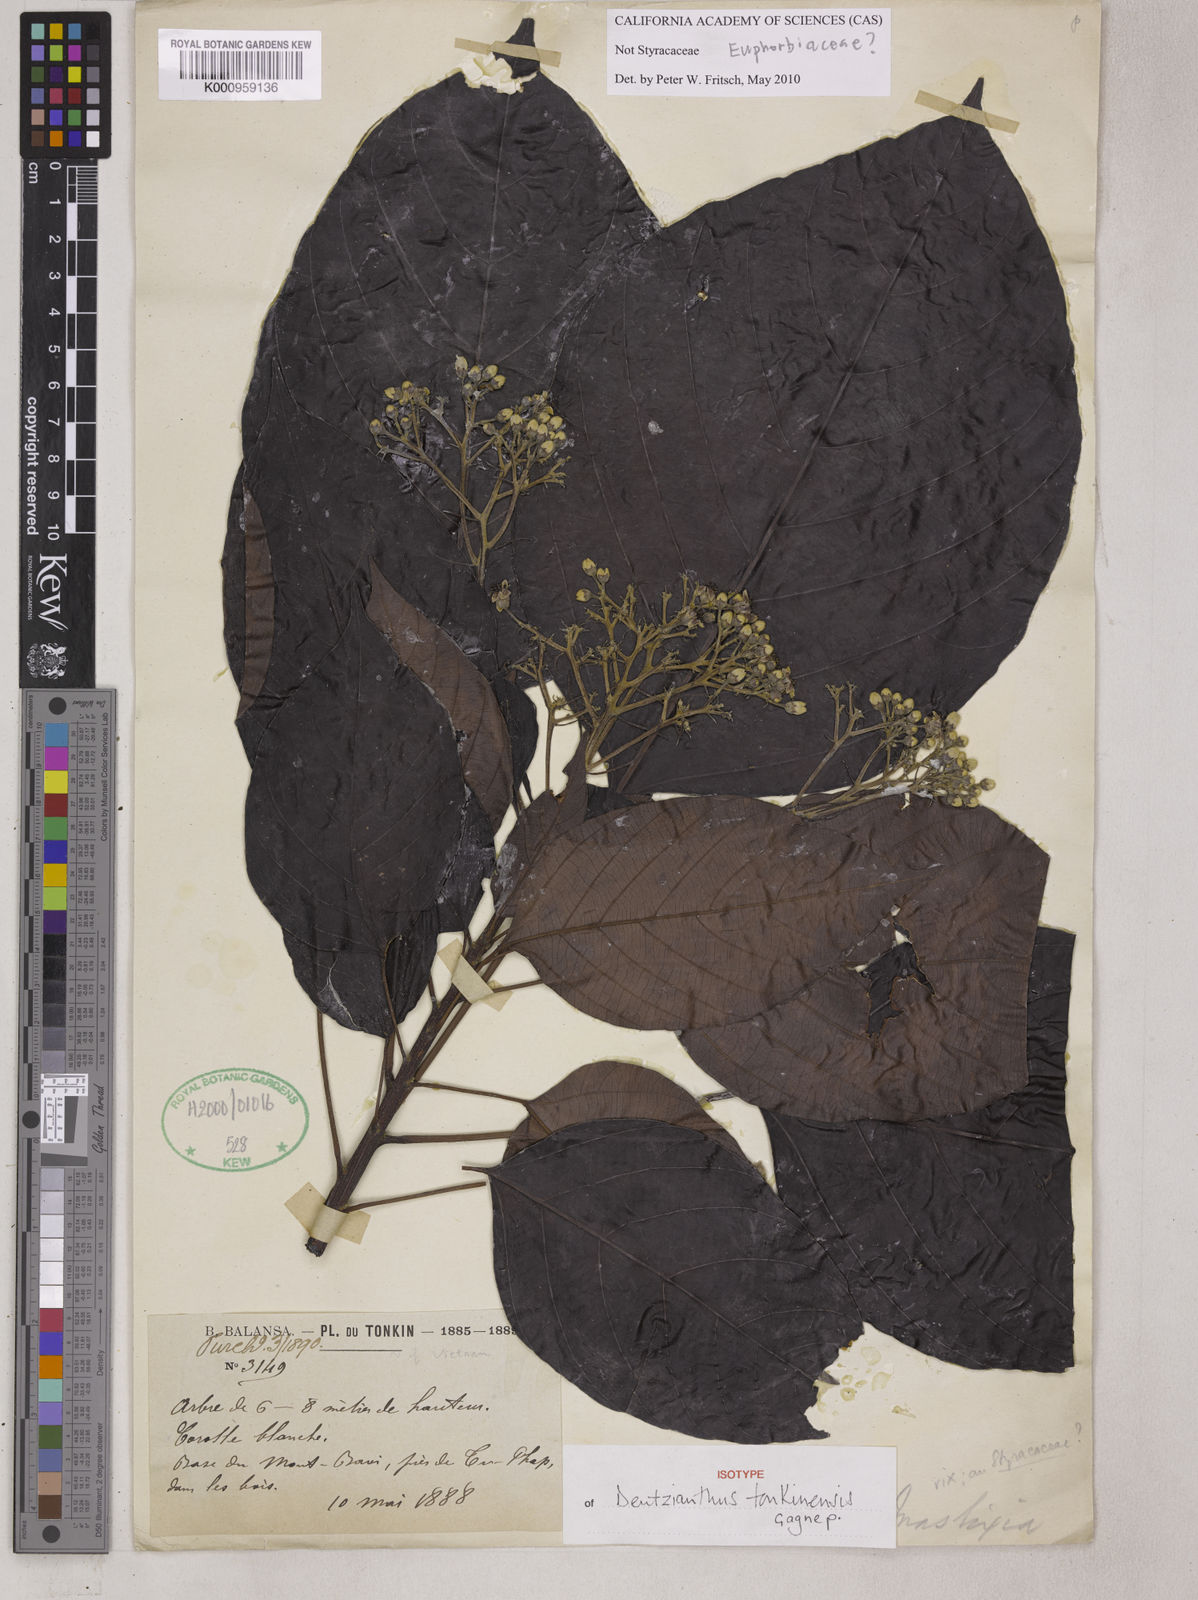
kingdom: Plantae
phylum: Tracheophyta
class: Magnoliopsida
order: Malpighiales
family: Euphorbiaceae
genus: Deutzianthus
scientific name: Deutzianthus tonkinensis
